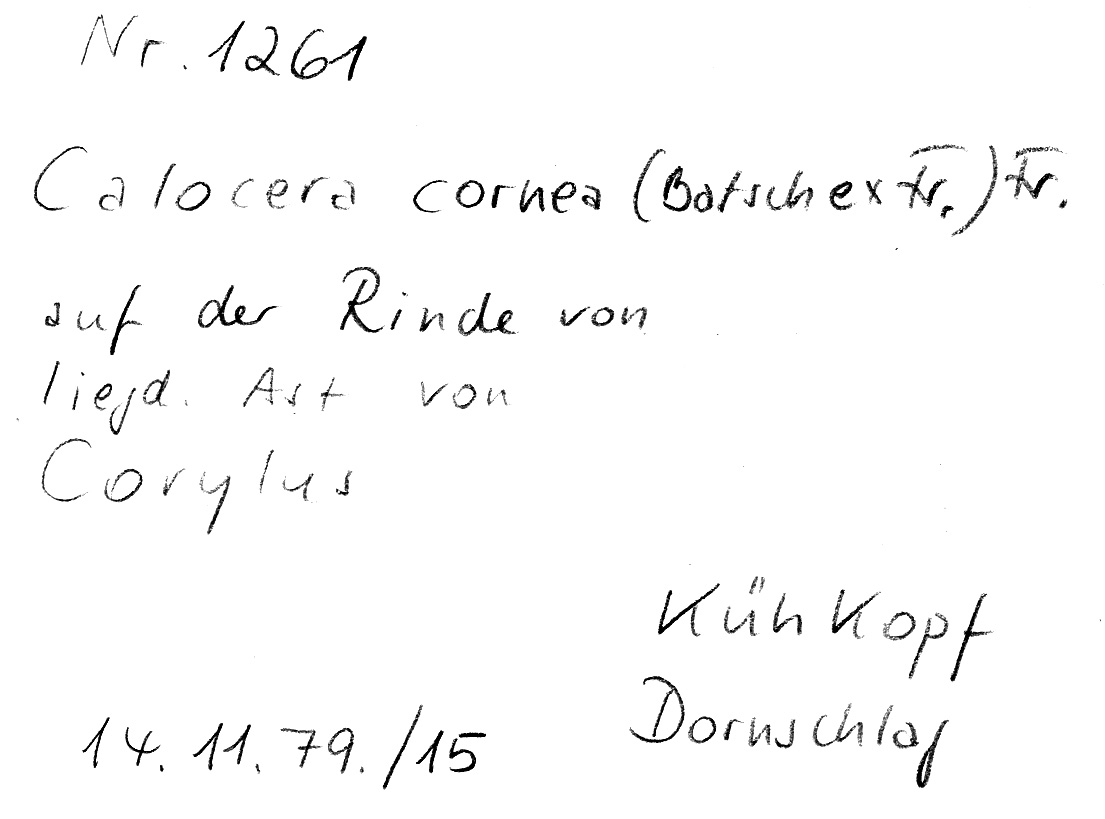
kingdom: Fungi
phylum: Basidiomycota
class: Dacrymycetes
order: Dacrymycetales
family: Dacrymycetaceae
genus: Calocera
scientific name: Calocera cornea
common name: Small stagshorn
